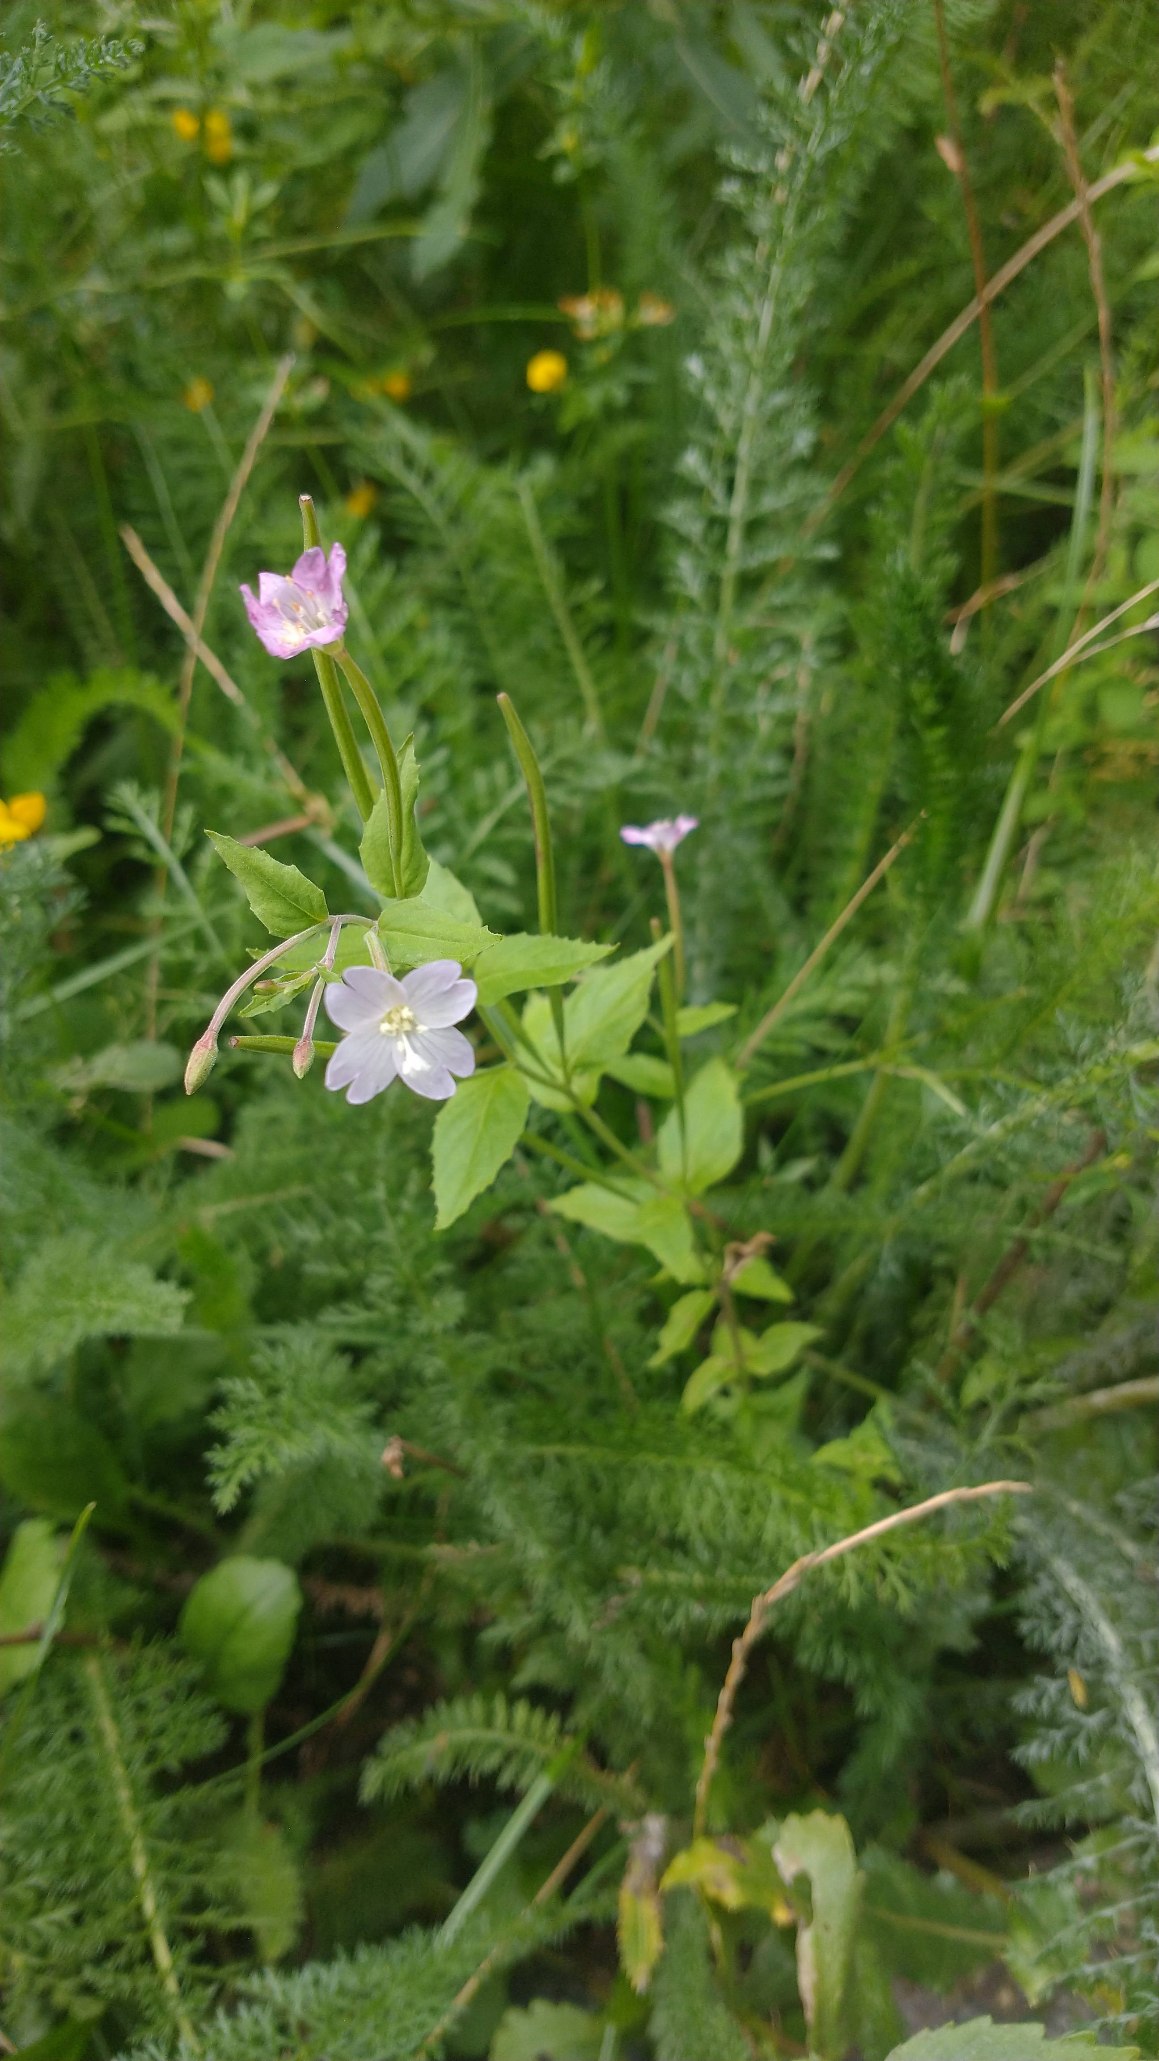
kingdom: Plantae
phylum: Tracheophyta
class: Magnoliopsida
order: Myrtales
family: Onagraceae
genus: Epilobium
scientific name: Epilobium montanum
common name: Glat dueurt
